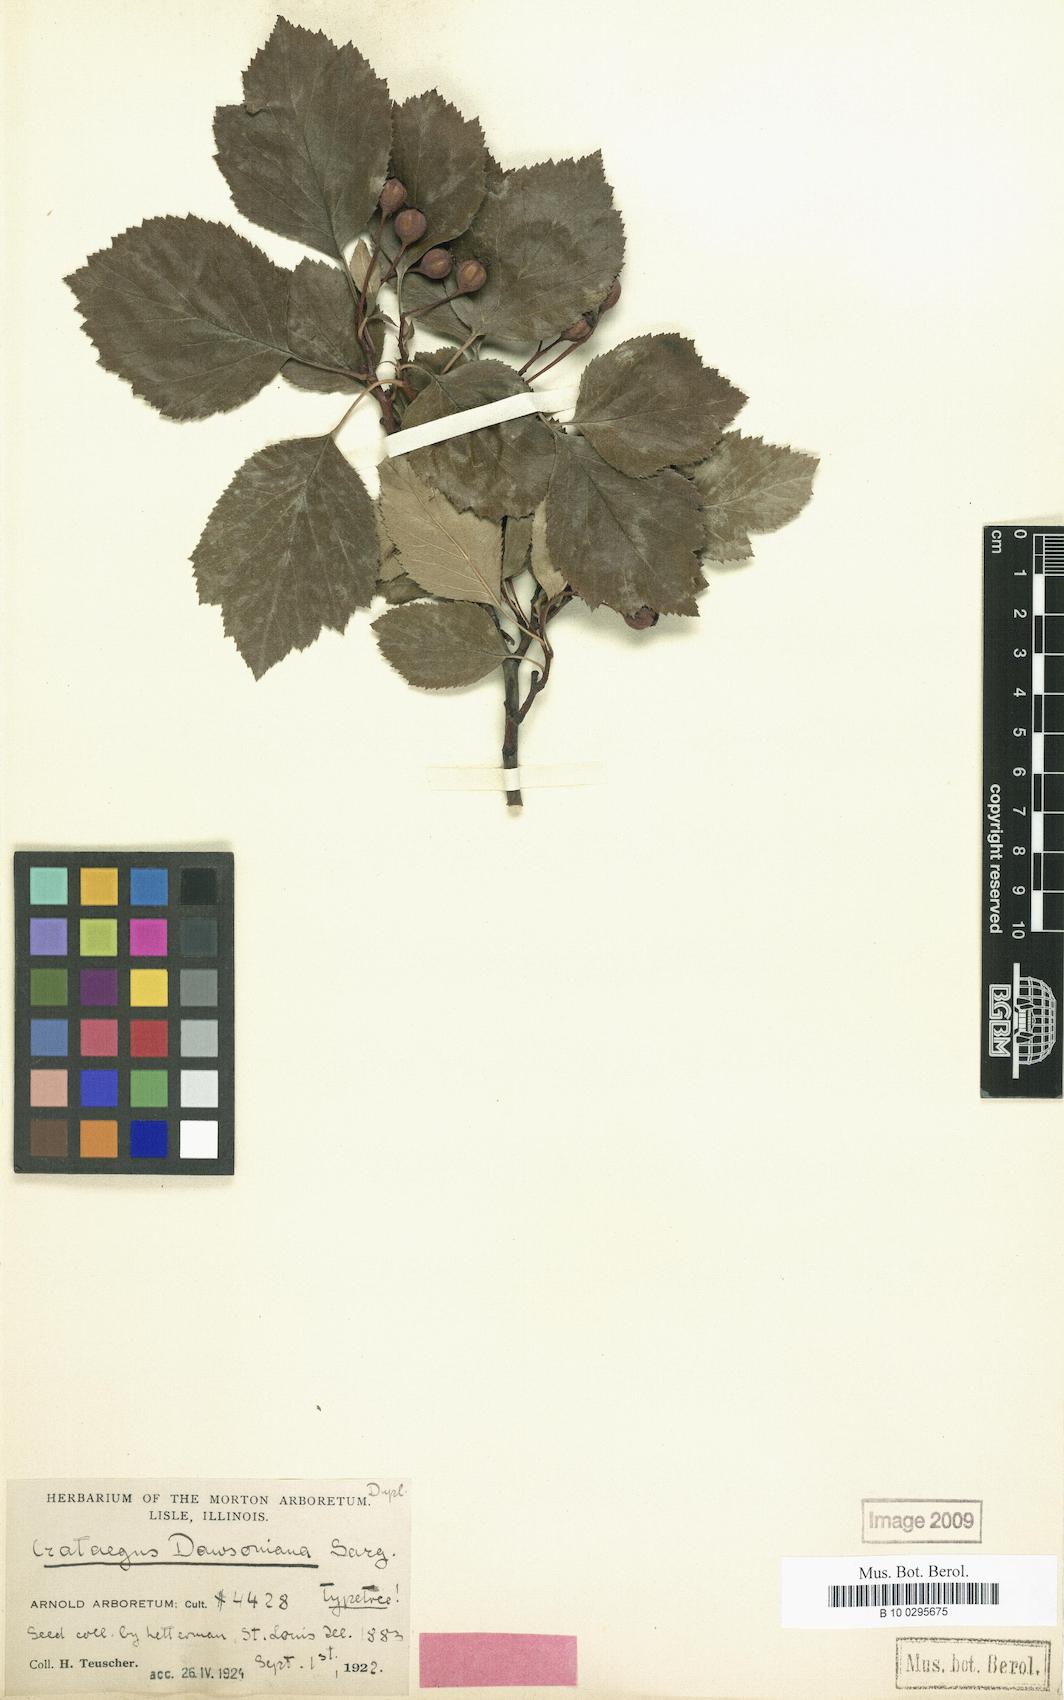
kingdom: Plantae
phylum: Tracheophyta
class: Magnoliopsida
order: Rosales
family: Rosaceae
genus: Crataegus
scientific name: Crataegus dawsoniana
